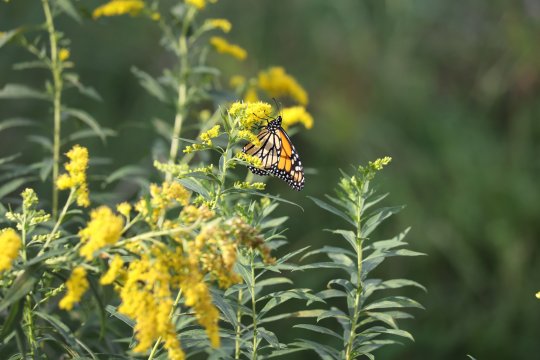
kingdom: Animalia
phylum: Arthropoda
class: Insecta
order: Lepidoptera
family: Nymphalidae
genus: Danaus
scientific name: Danaus plexippus
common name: Monarch
